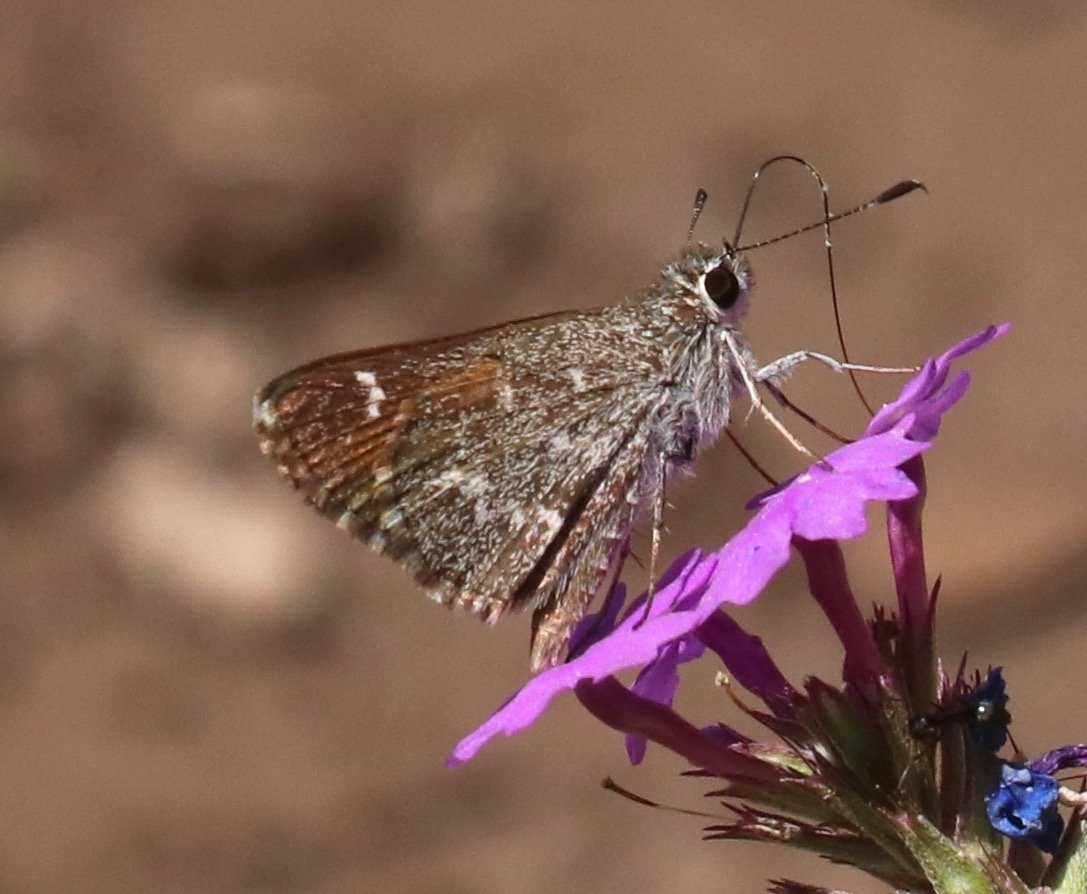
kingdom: Animalia
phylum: Arthropoda
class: Insecta
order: Lepidoptera
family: Hesperiidae
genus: Mastor
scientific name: Mastor aenus
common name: Bronze Roadside-Skipper
